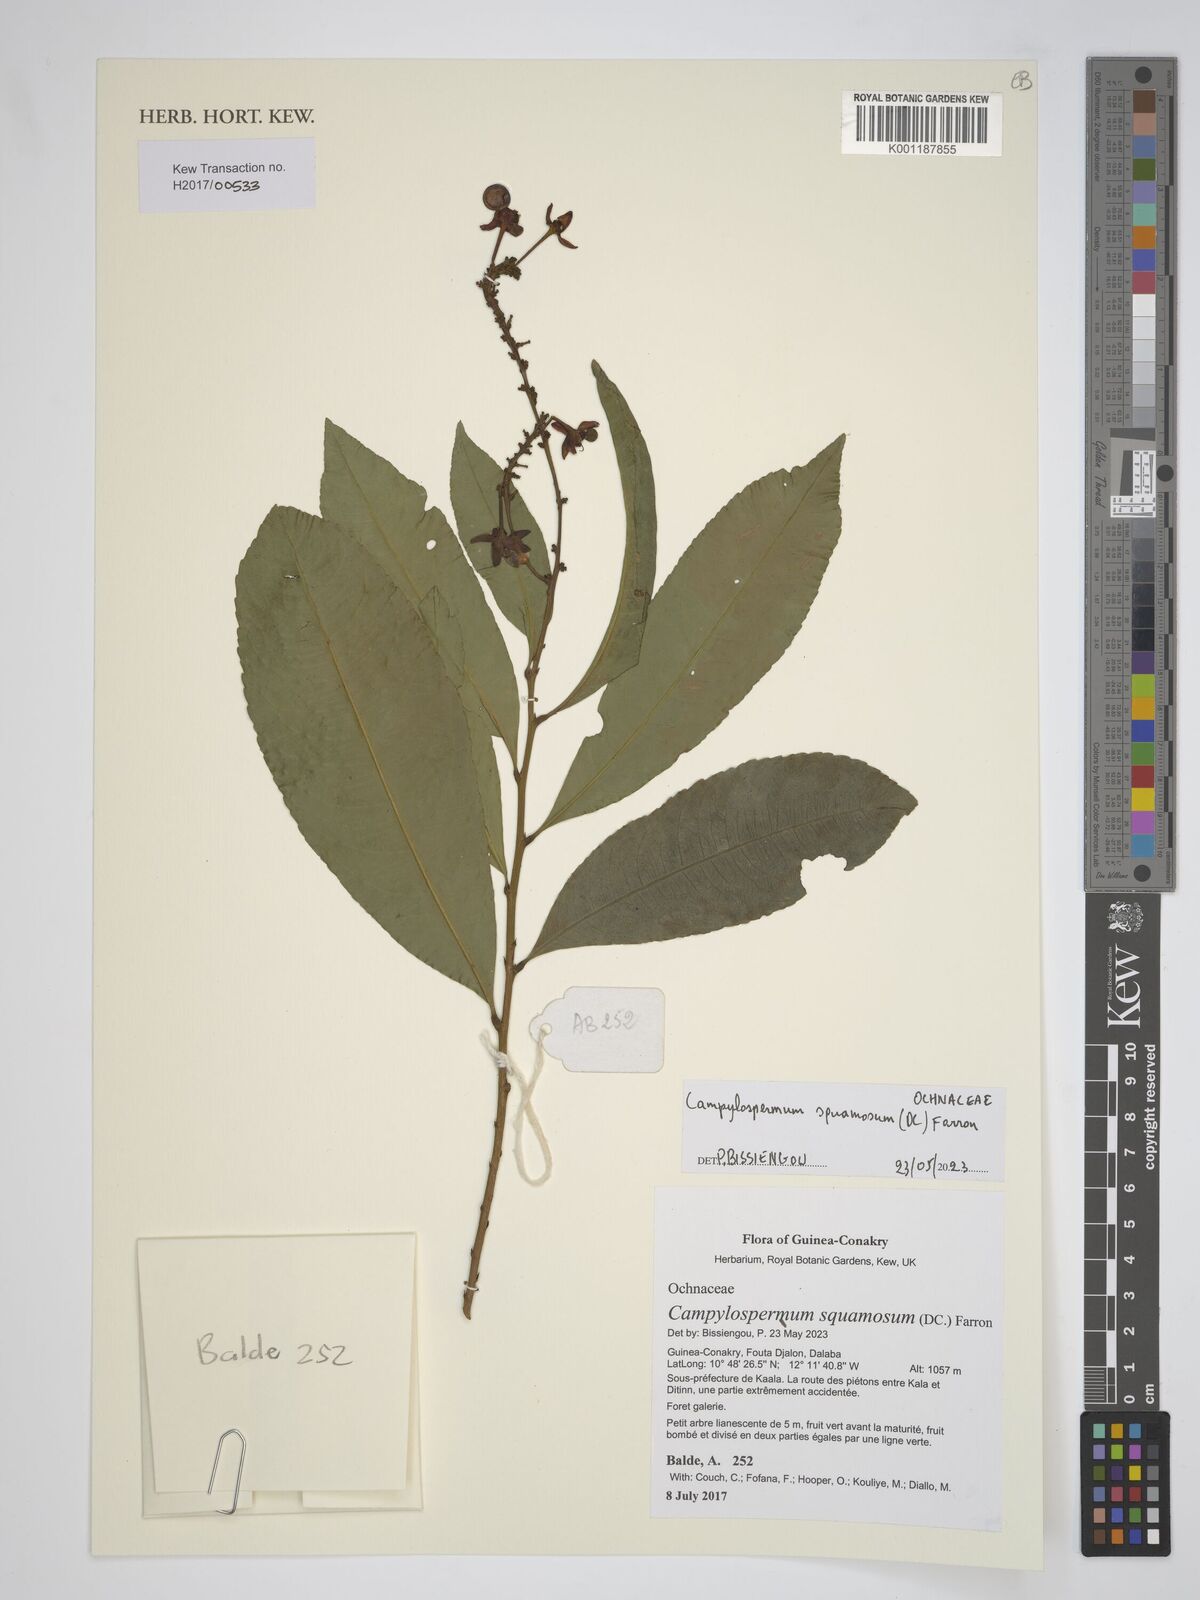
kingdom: Plantae
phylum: Tracheophyta
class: Magnoliopsida
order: Malpighiales
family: Ochnaceae
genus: Campylospermum
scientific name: Campylospermum squamosum
